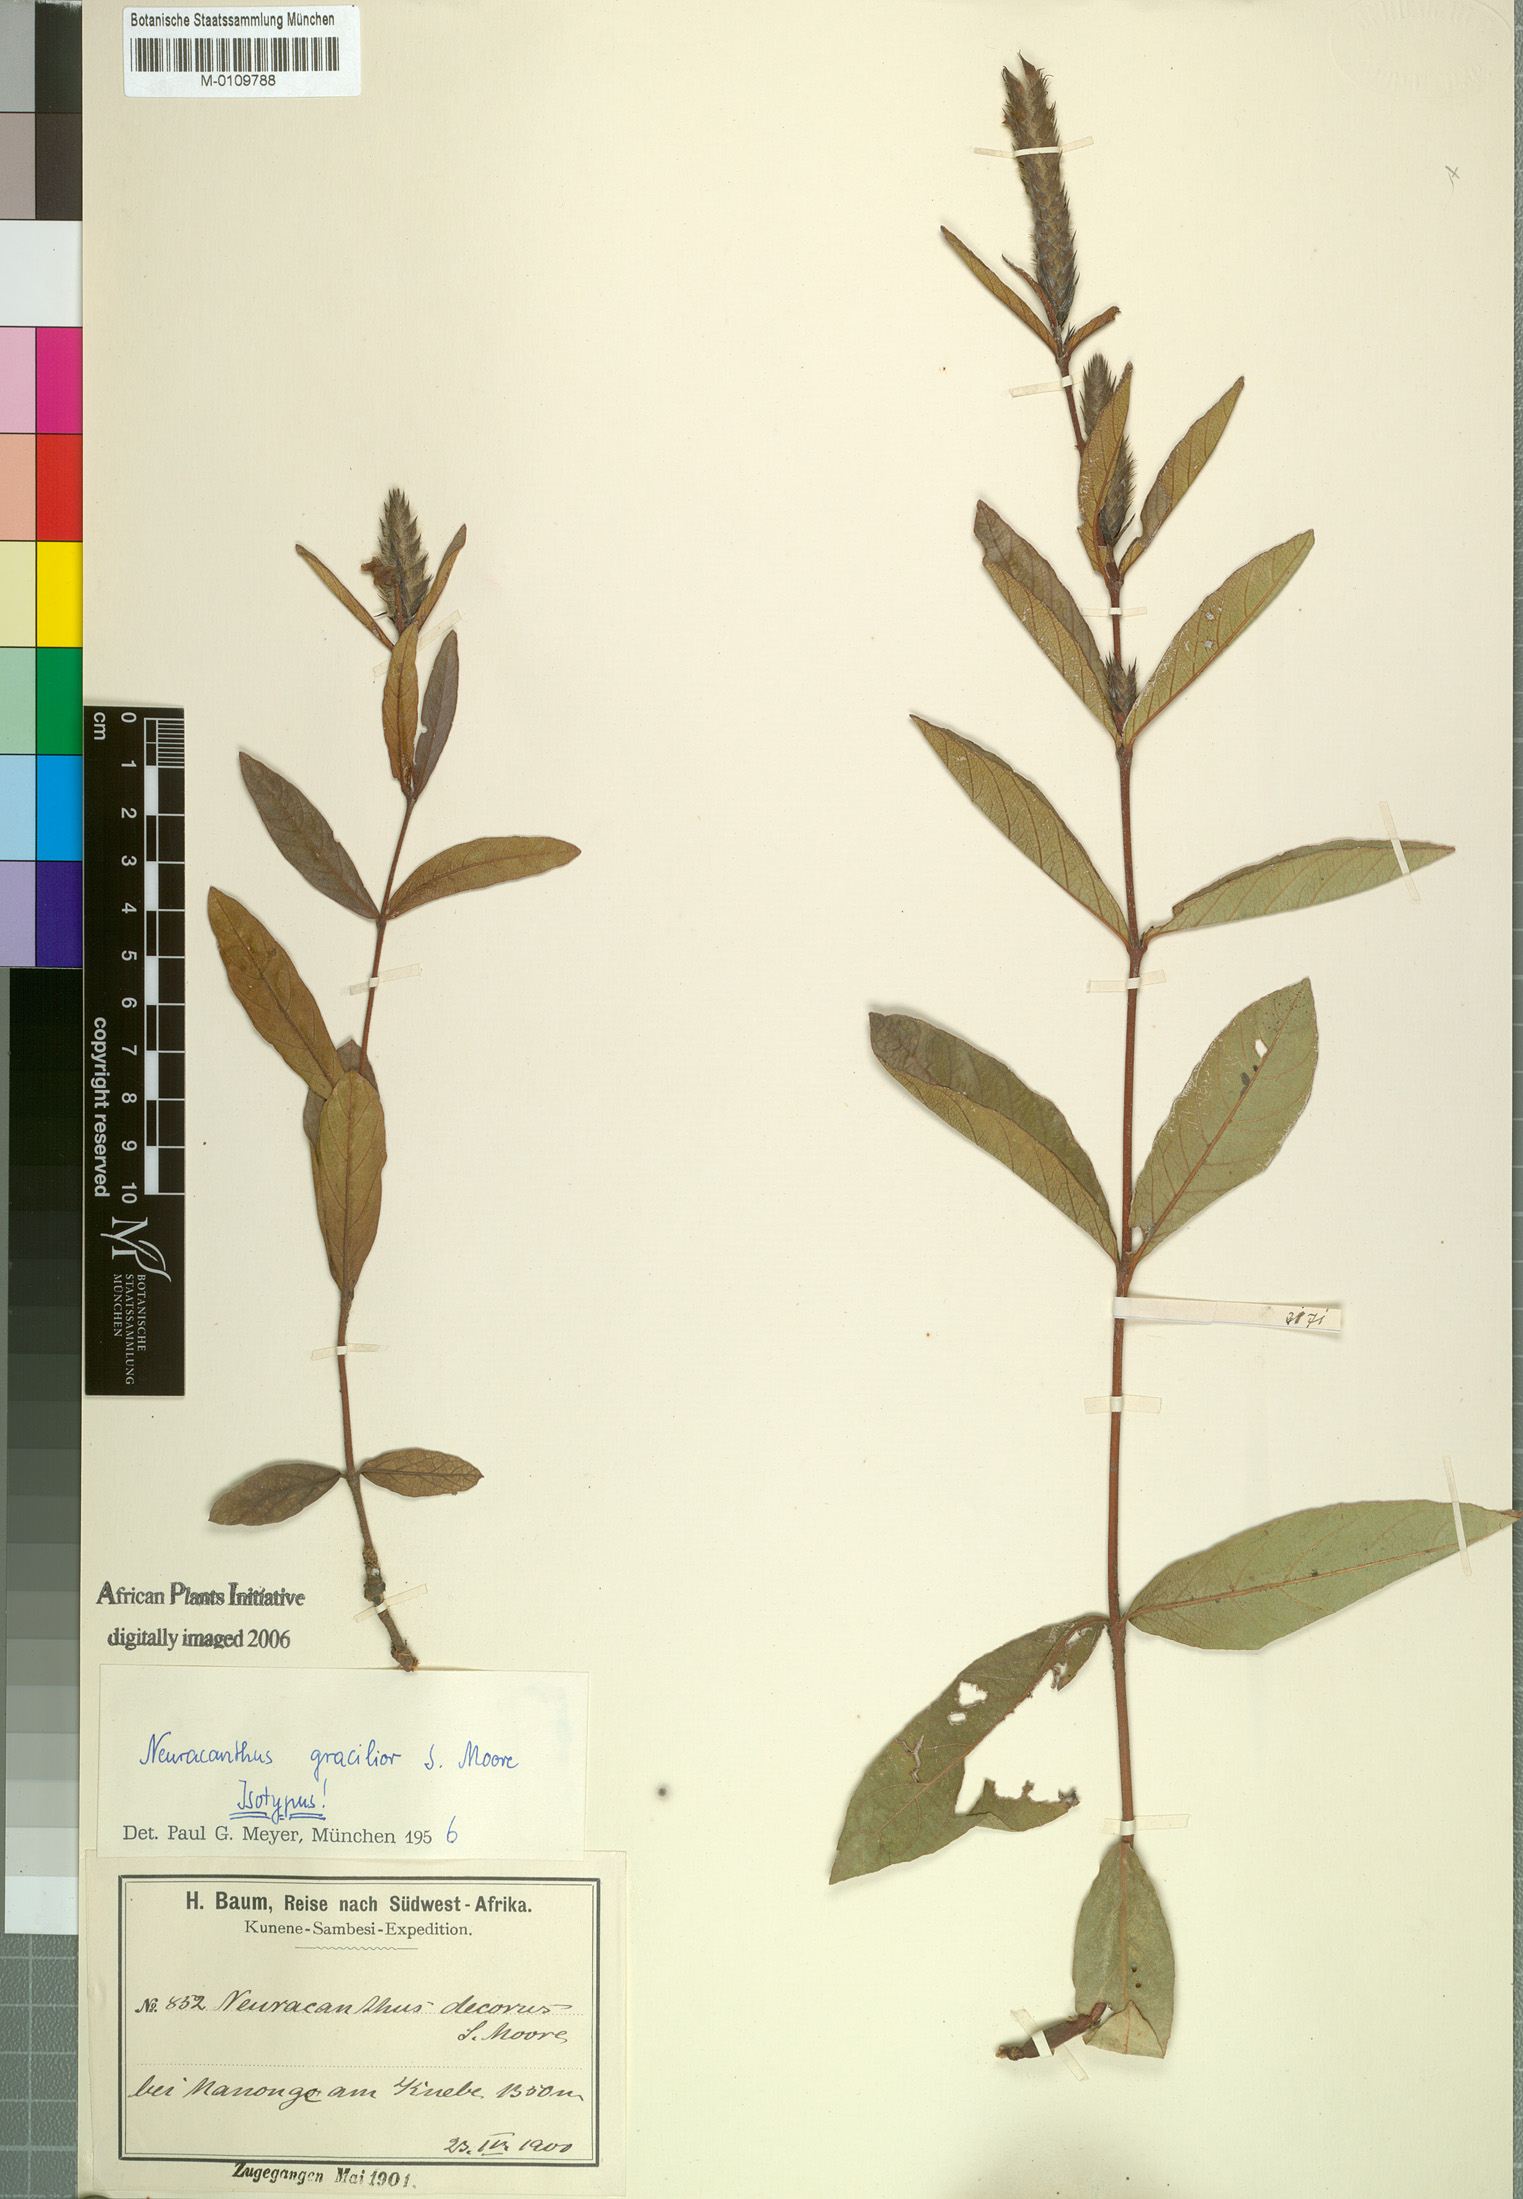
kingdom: Plantae
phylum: Tracheophyta
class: Magnoliopsida
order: Lamiales
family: Acanthaceae
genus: Neuracanthus
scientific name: Neuracanthus gracilior
